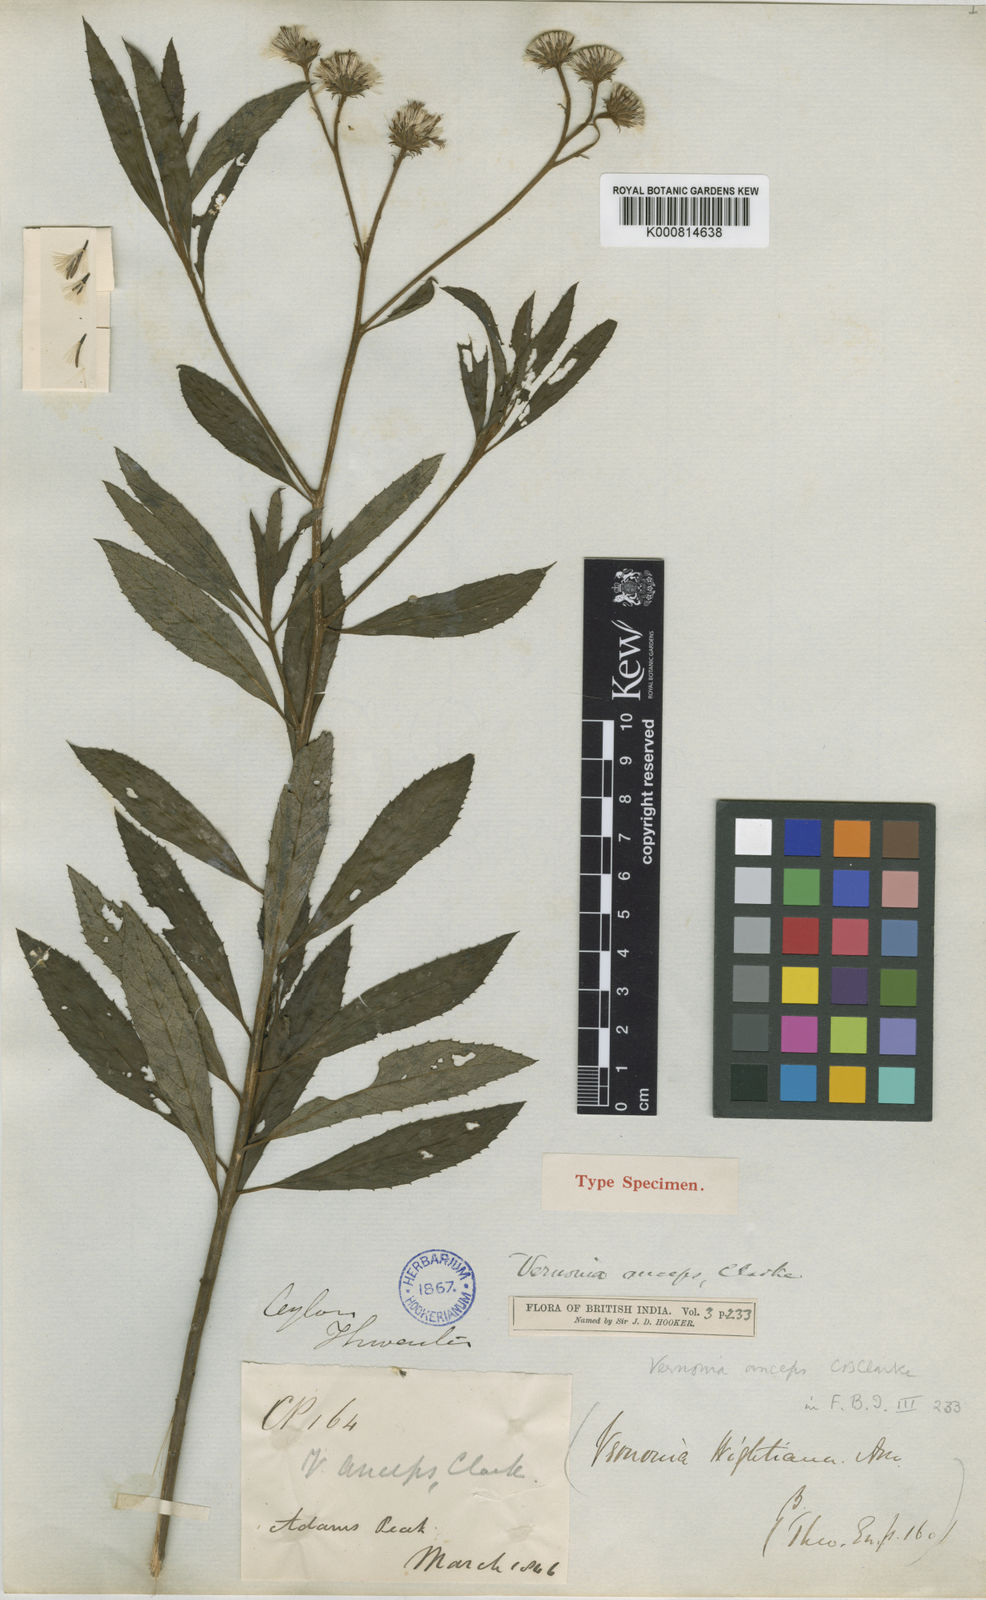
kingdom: Plantae
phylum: Tracheophyta
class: Magnoliopsida
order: Asterales
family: Asteraceae
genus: Uniyala
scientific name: Uniyala anceps
